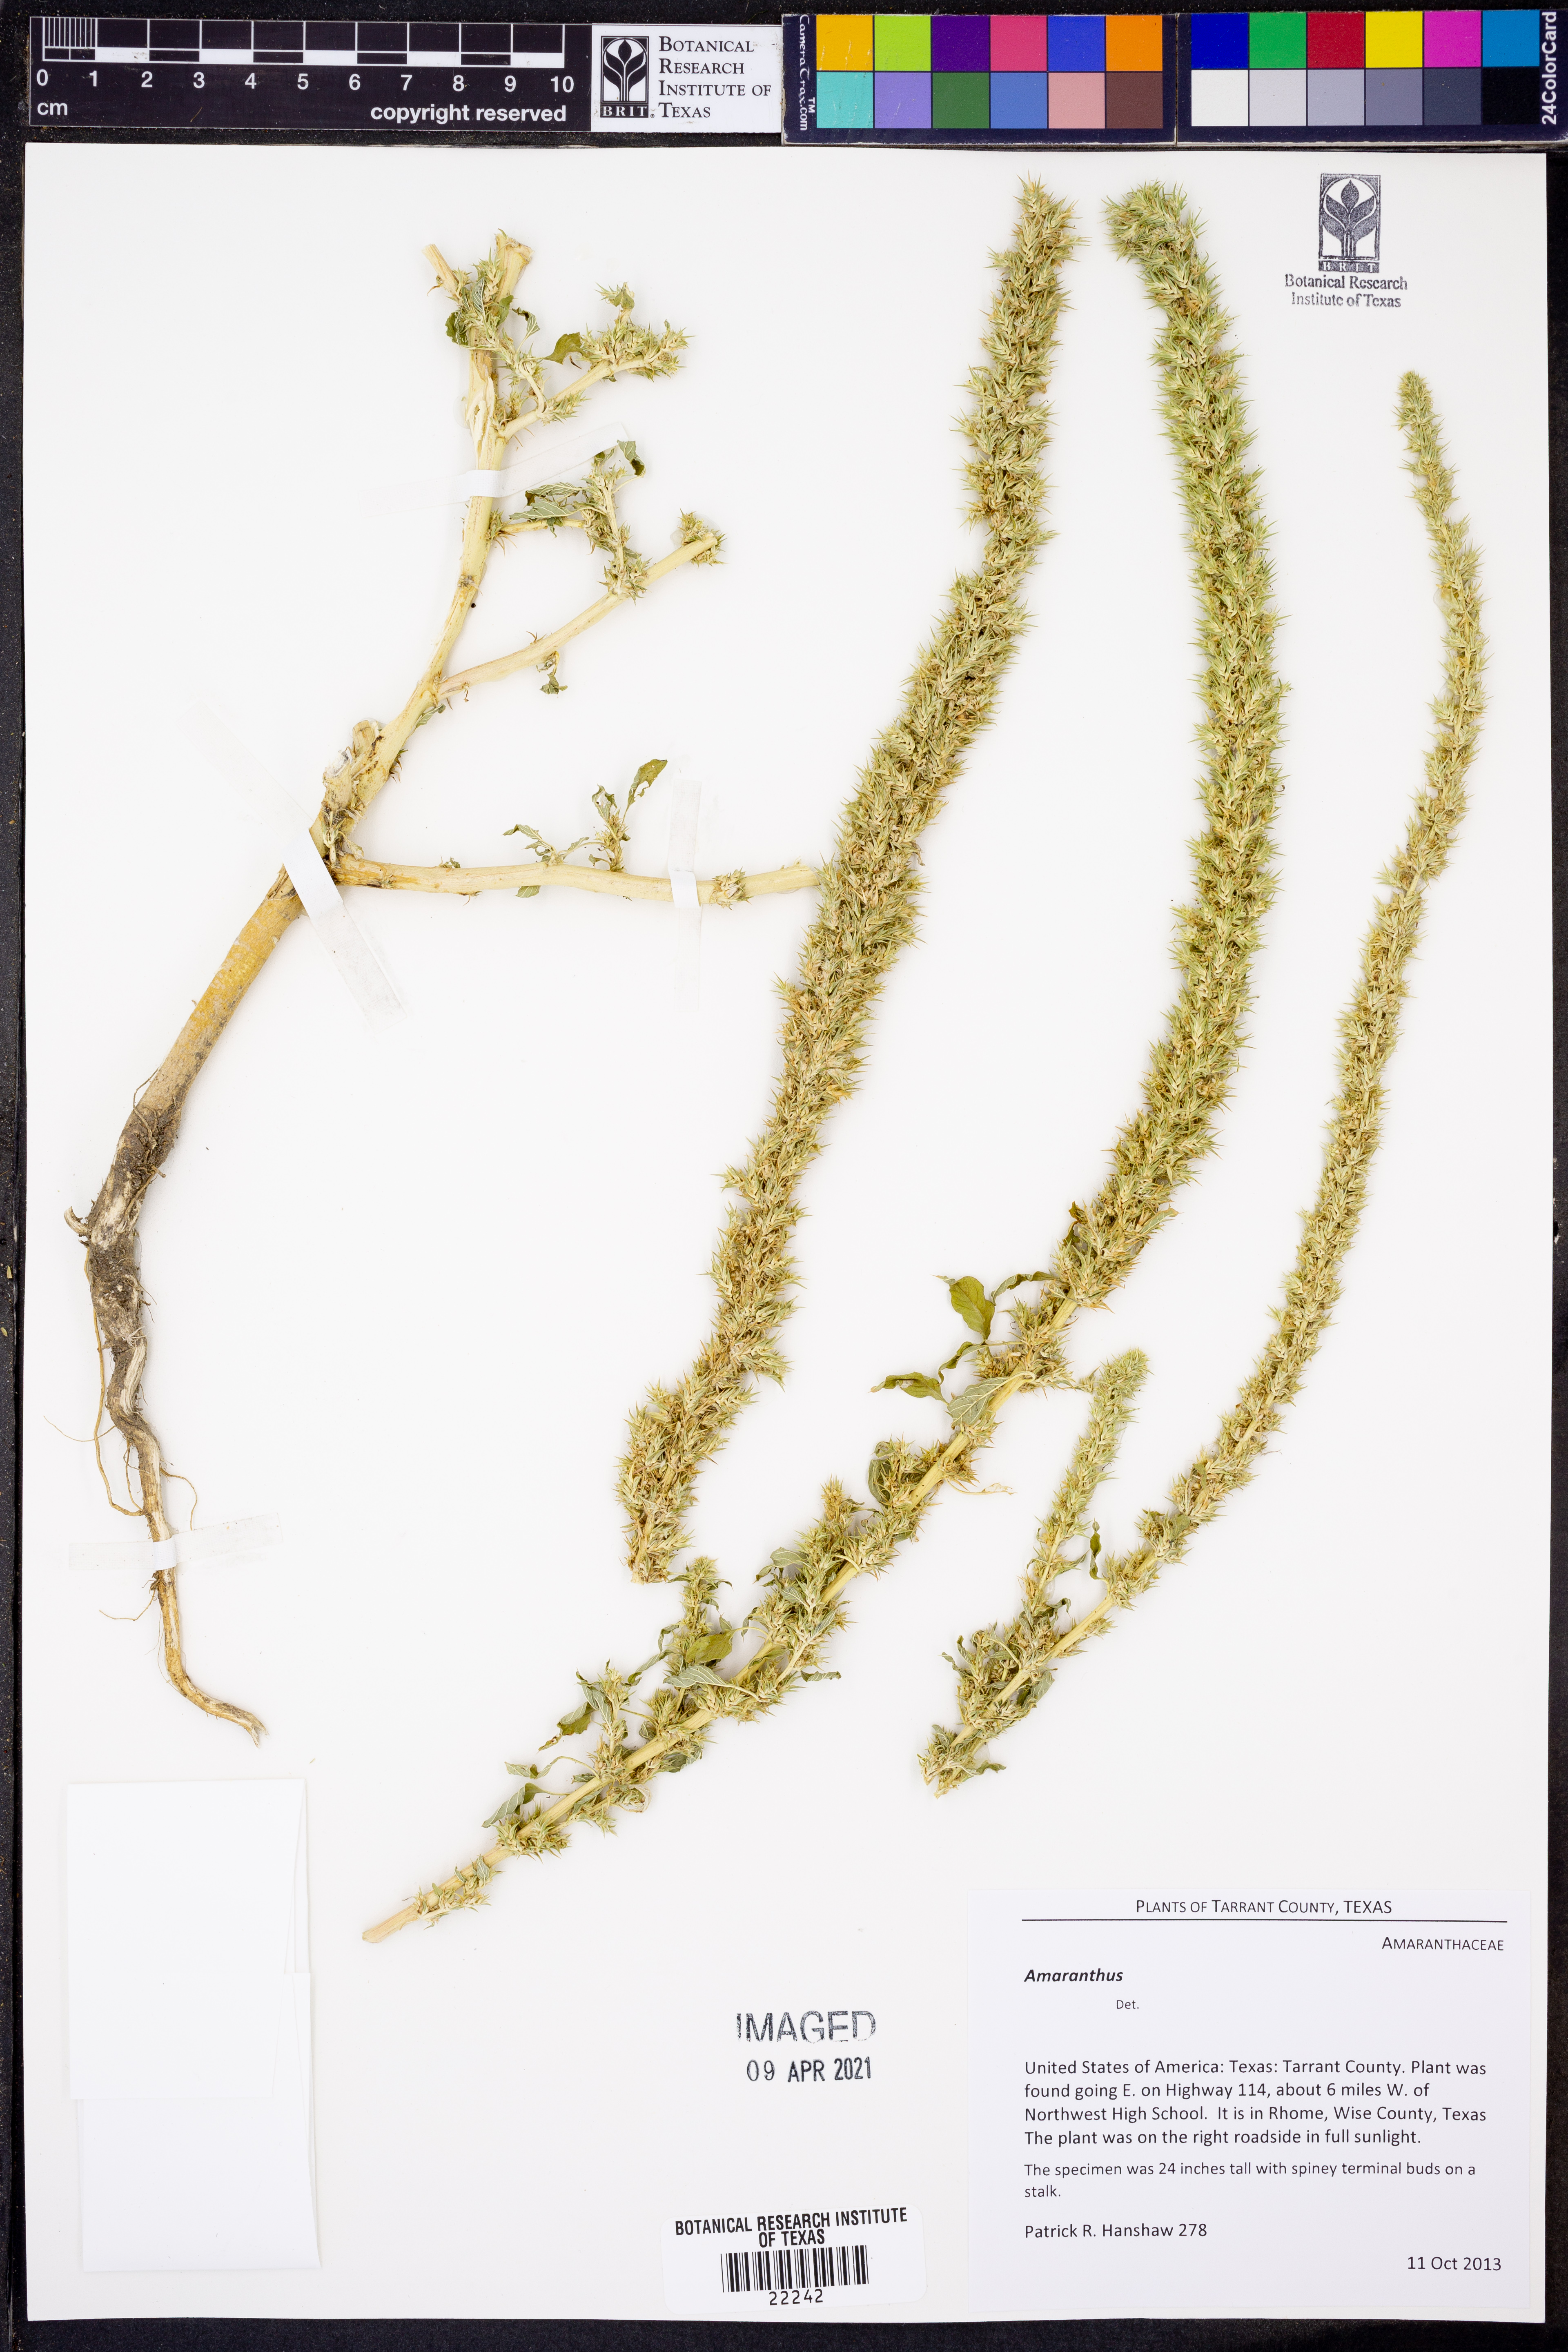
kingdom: Plantae
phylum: Tracheophyta
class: Magnoliopsida
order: Caryophyllales
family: Amaranthaceae
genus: Amaranthus
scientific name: Amaranthus powellii
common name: Powell's amaranth
